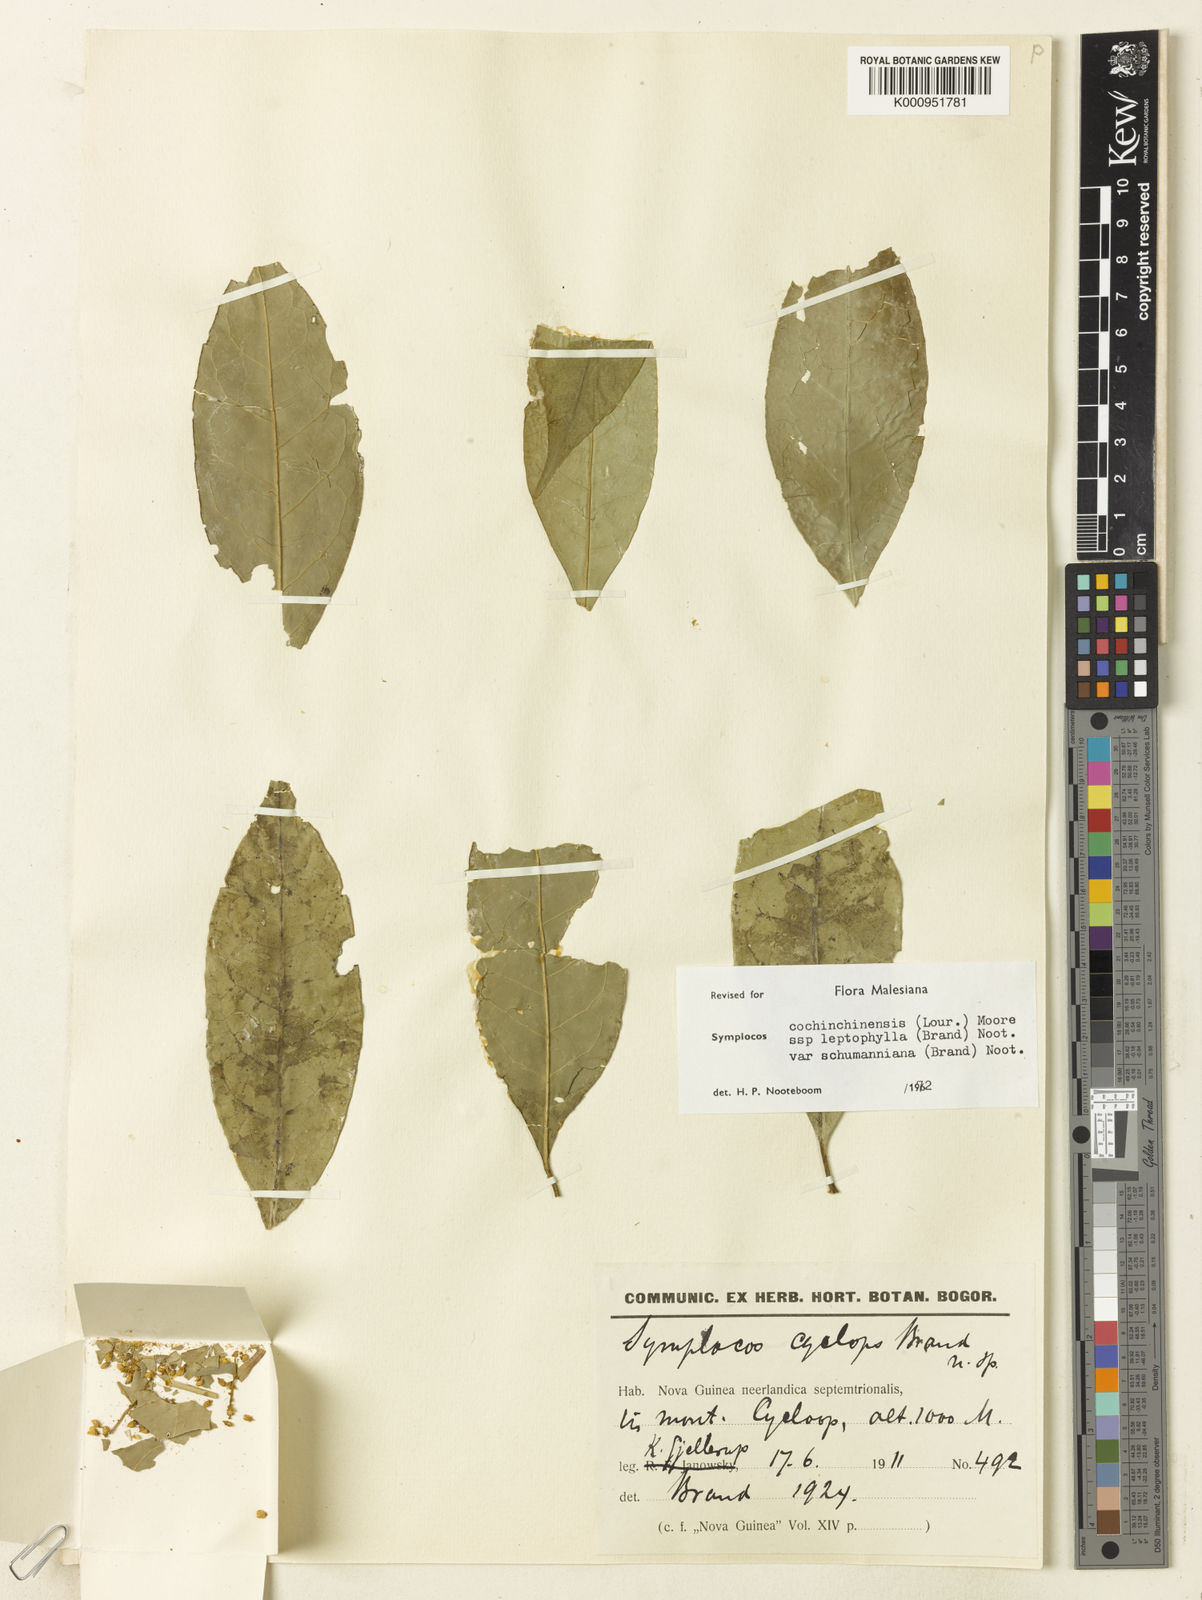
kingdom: Plantae
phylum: Tracheophyta
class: Magnoliopsida
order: Ericales
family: Symplocaceae
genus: Symplocos
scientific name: Symplocos cochinchinensis
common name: Buff hazelwood
